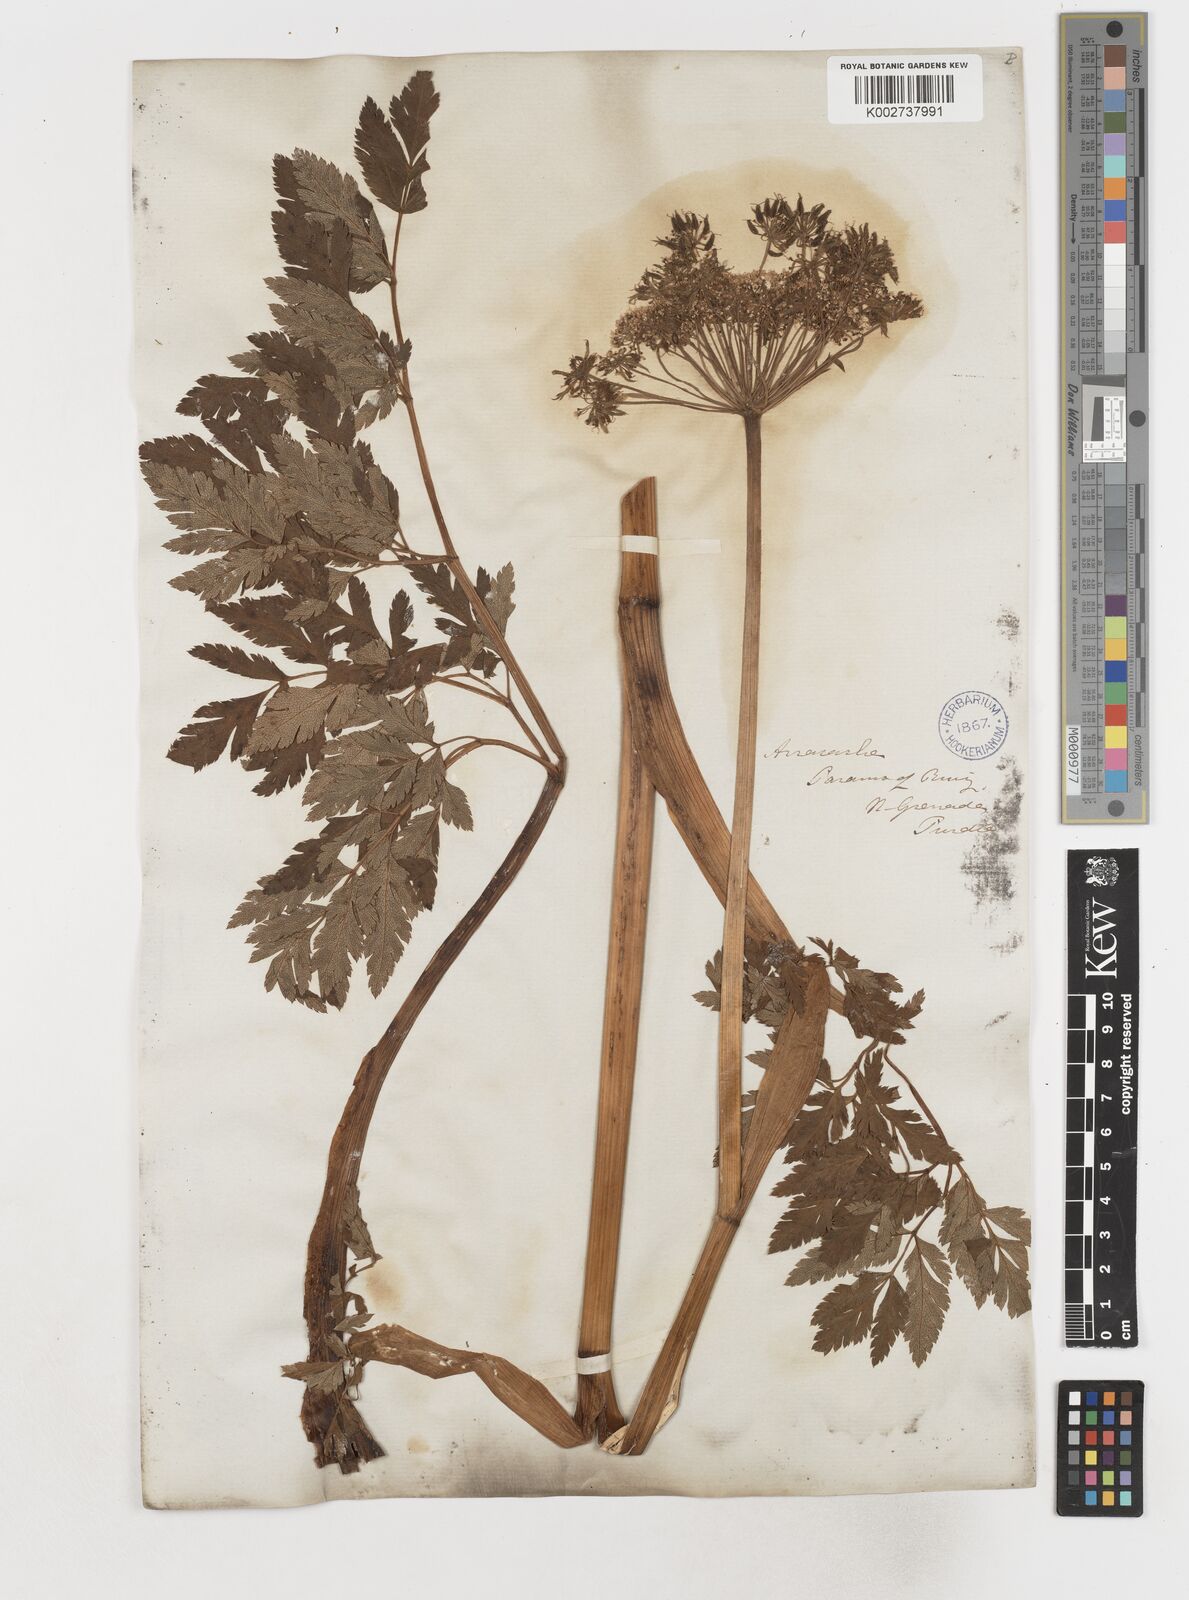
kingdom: Plantae
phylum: Tracheophyta
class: Magnoliopsida
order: Apiales
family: Apiaceae
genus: Myrrhidendron
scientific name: Myrrhidendron glaucescens
